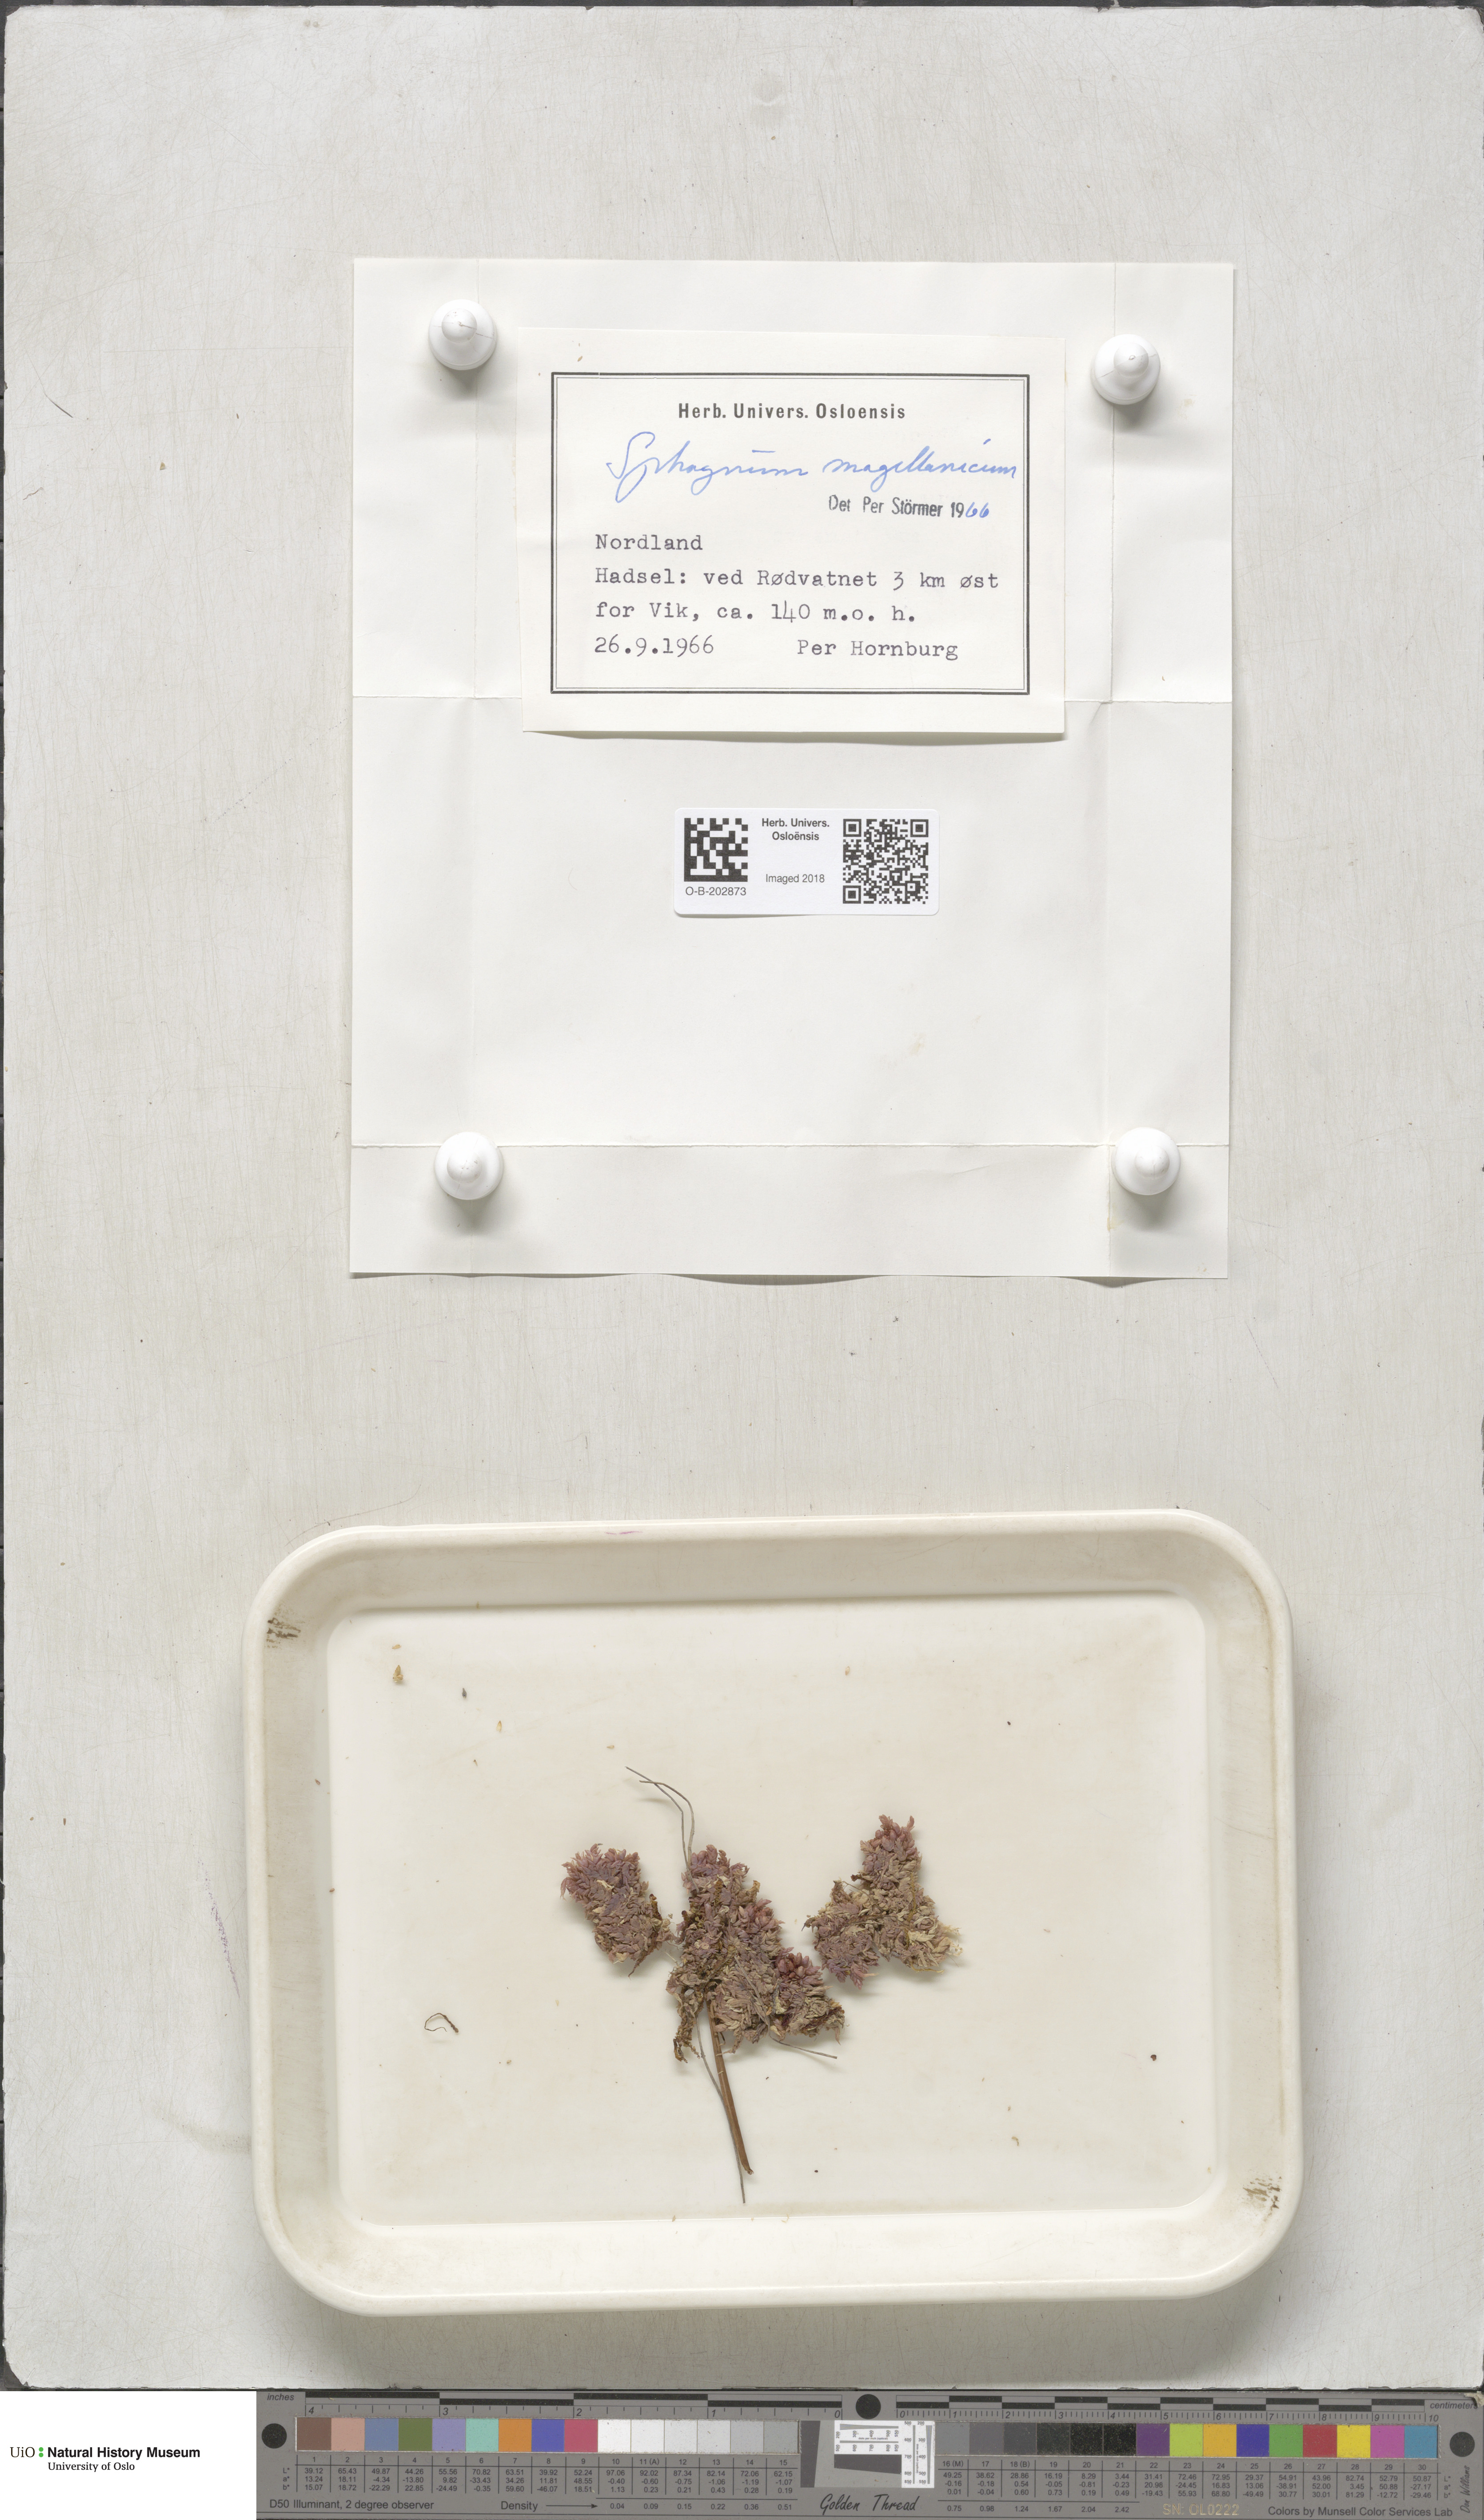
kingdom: Plantae
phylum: Bryophyta
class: Sphagnopsida
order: Sphagnales
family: Sphagnaceae
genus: Sphagnum
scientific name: Sphagnum magellanicum
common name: Magellan's peat moss
